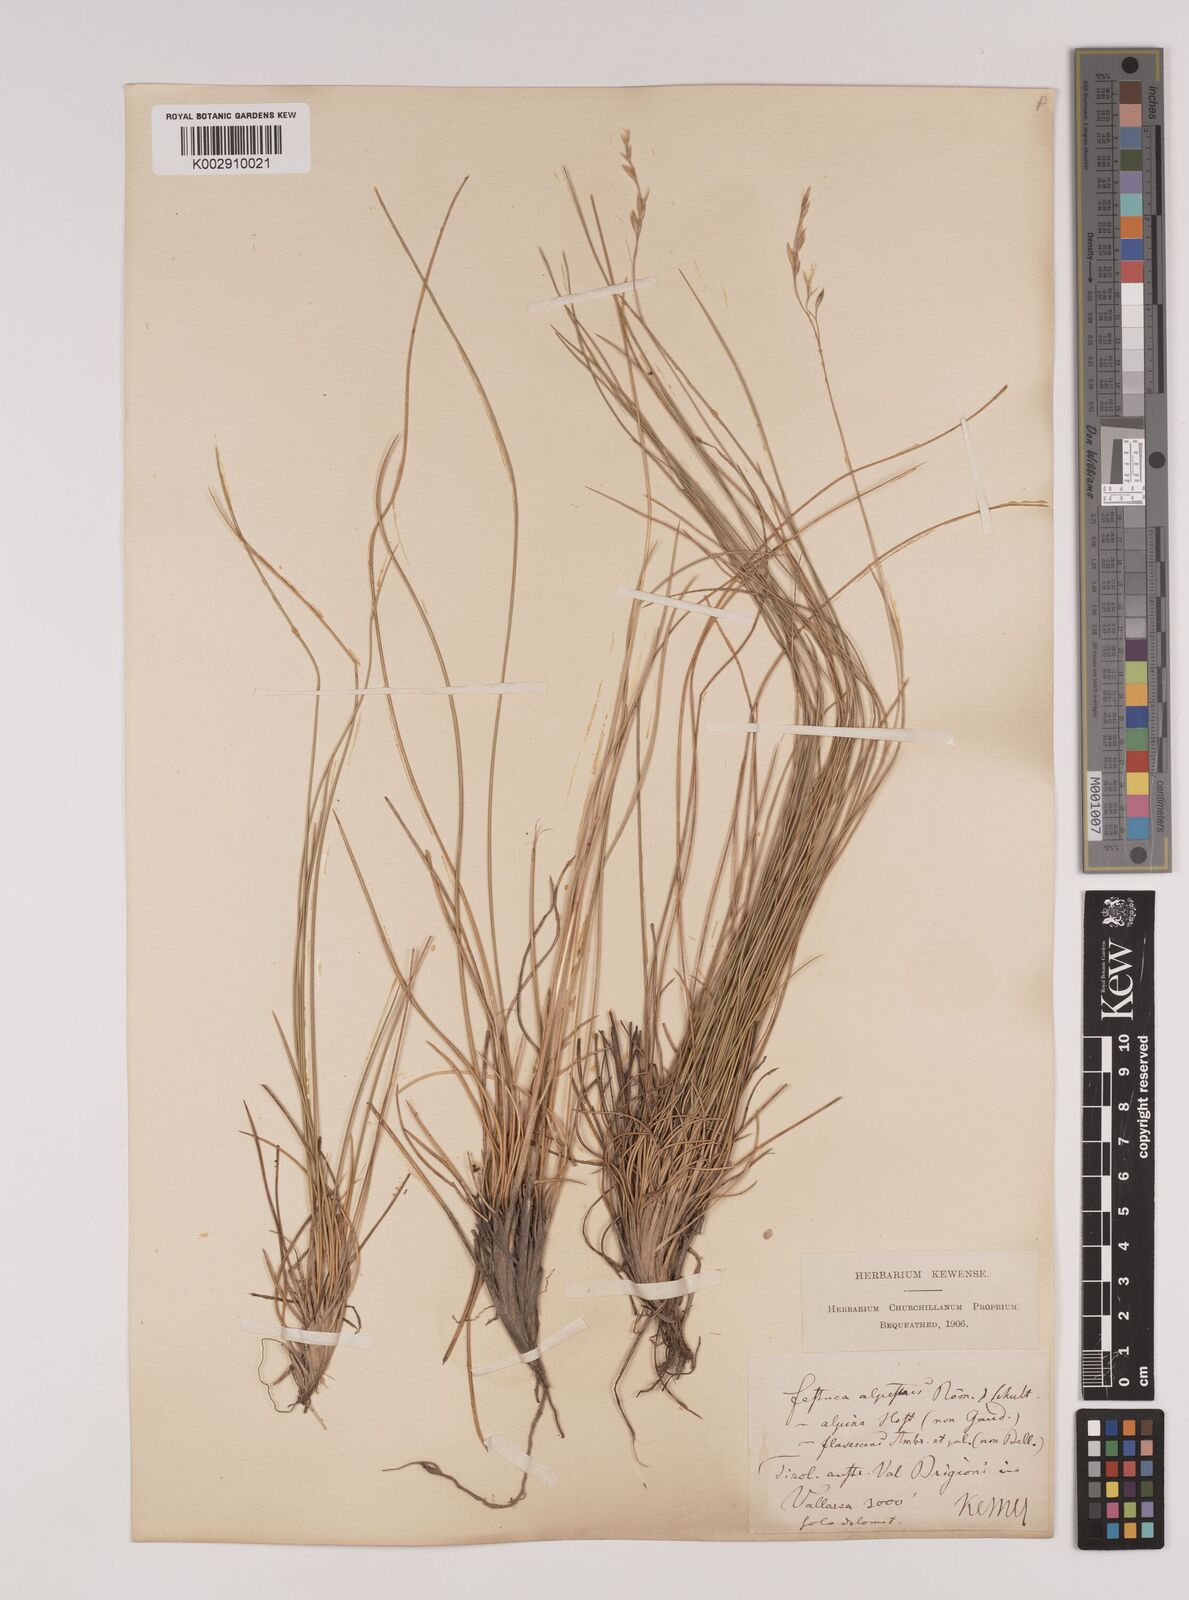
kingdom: Plantae
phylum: Tracheophyta
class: Liliopsida
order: Poales
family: Poaceae
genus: Festuca
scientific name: Festuca alpestris
